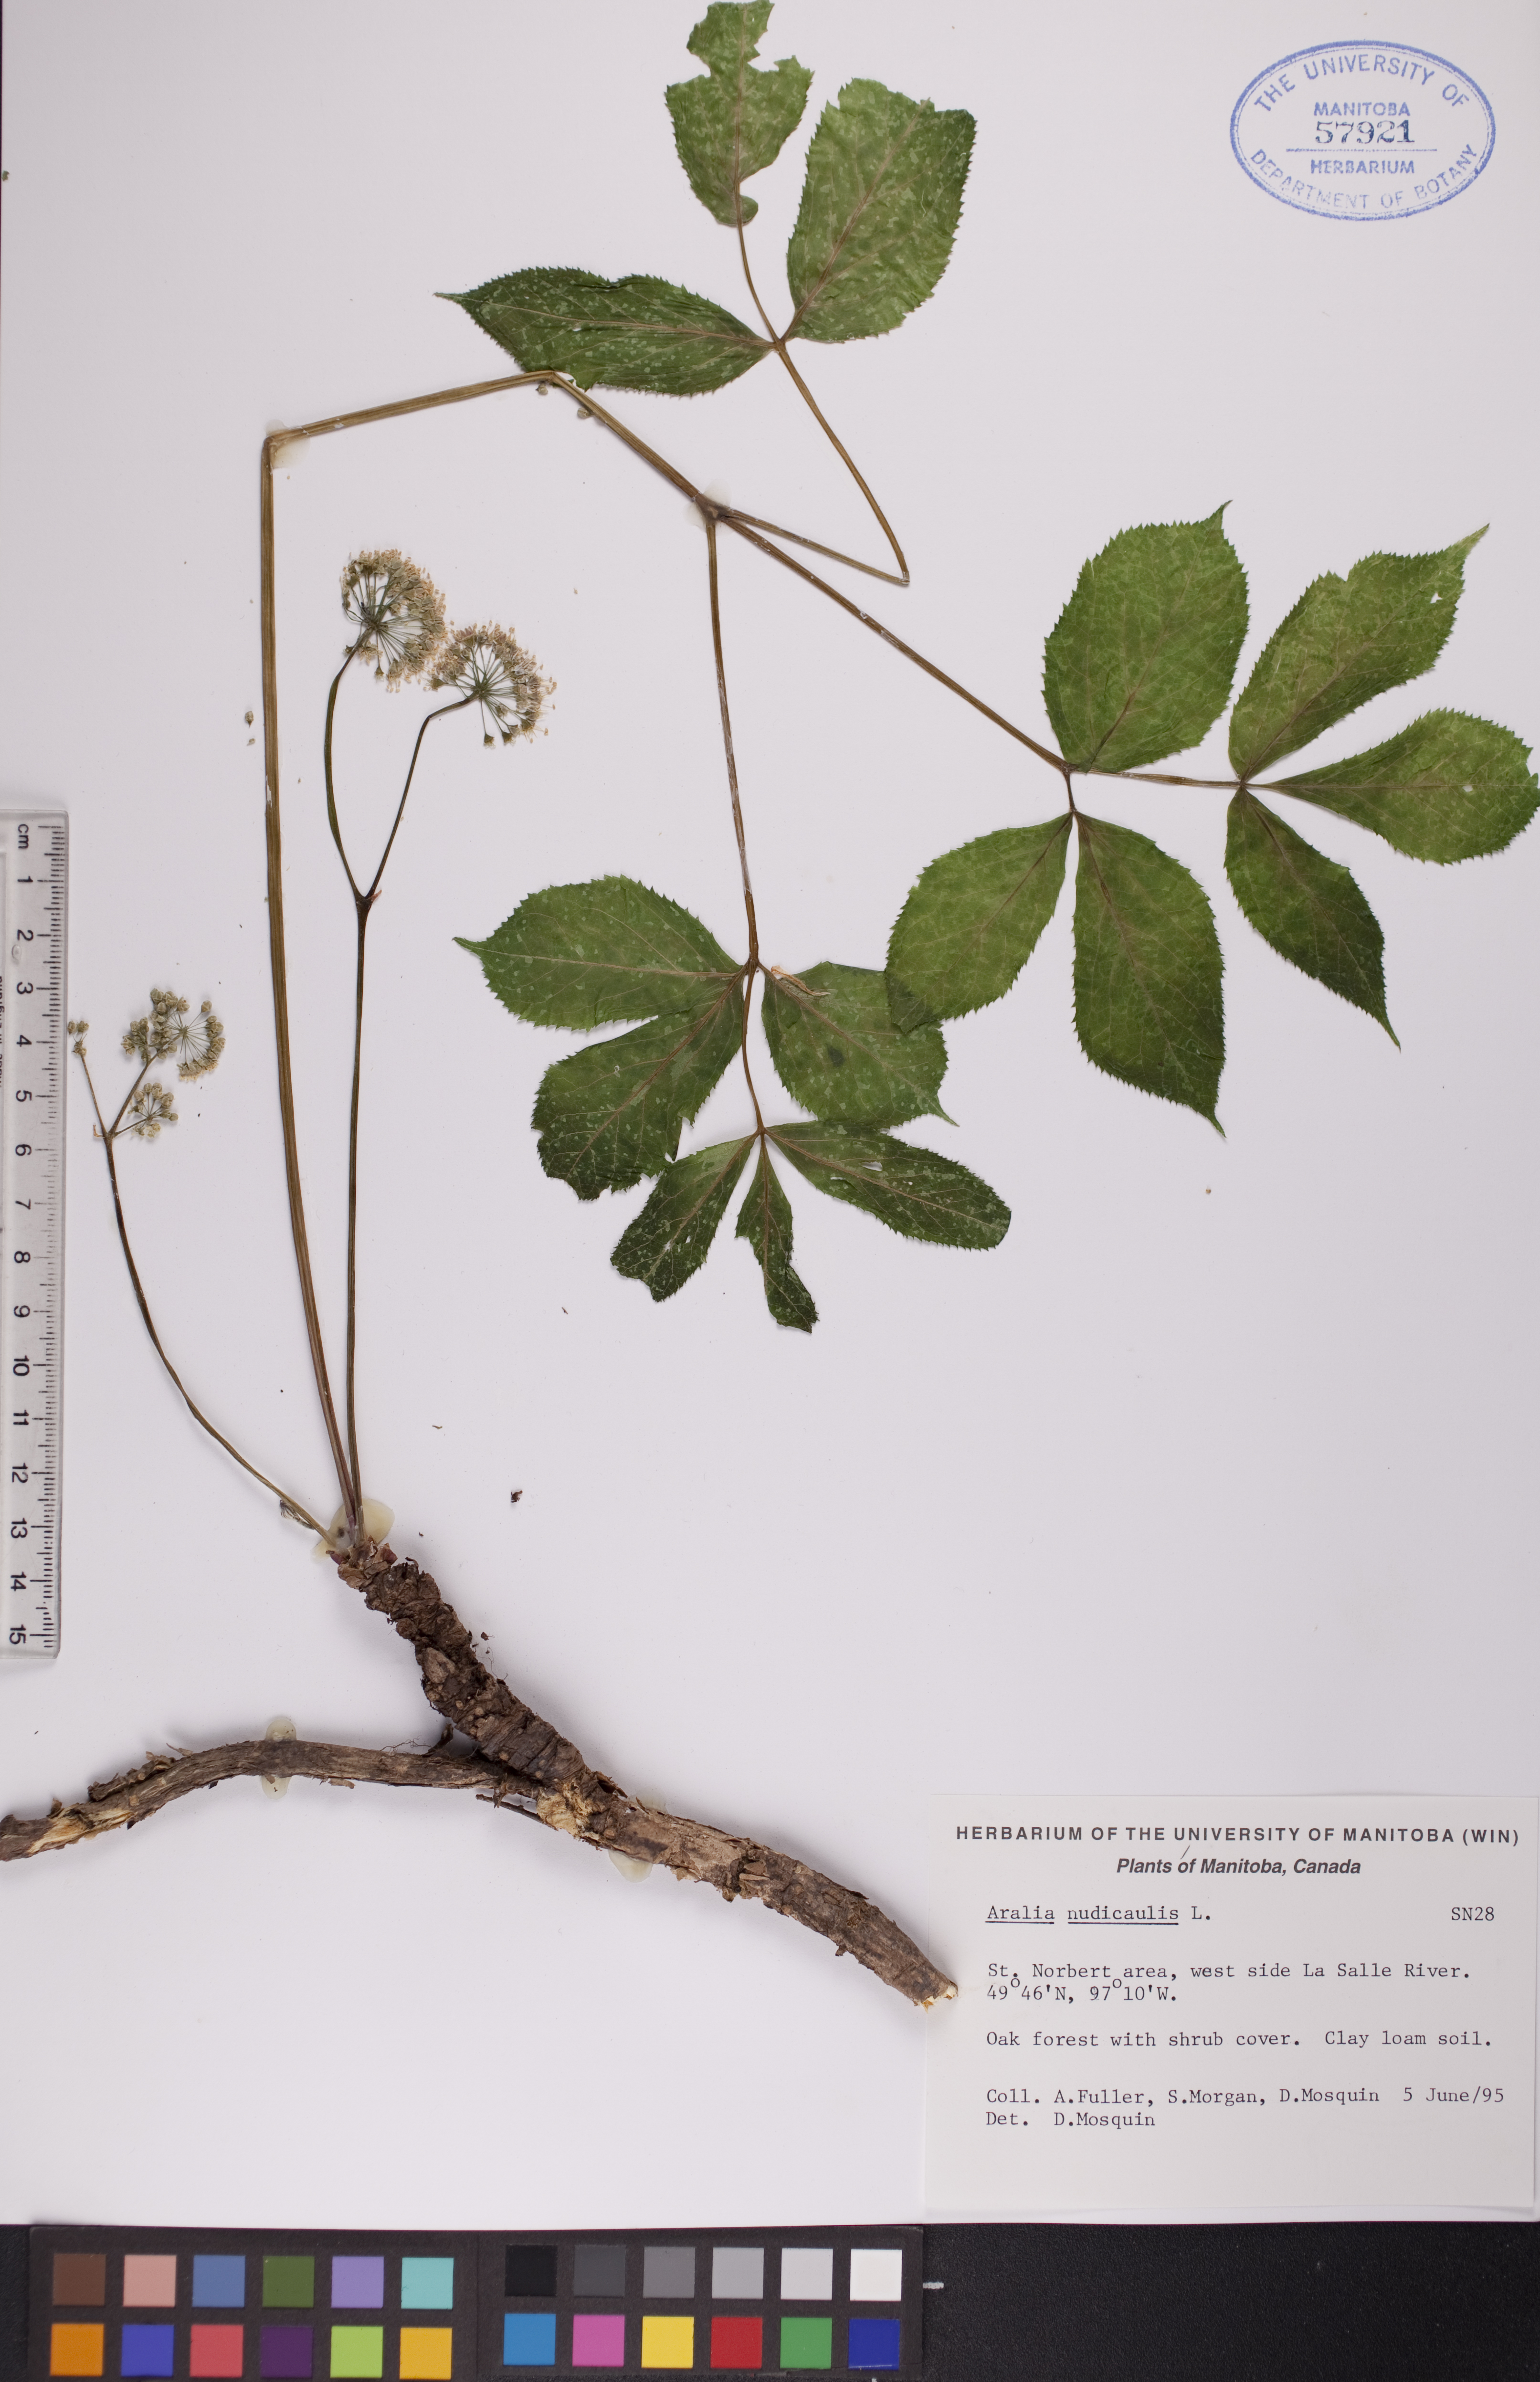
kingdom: Plantae
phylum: Tracheophyta
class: Magnoliopsida
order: Apiales
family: Araliaceae
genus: Aralia
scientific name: Aralia nudicaulis
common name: Wild sarsaparilla
